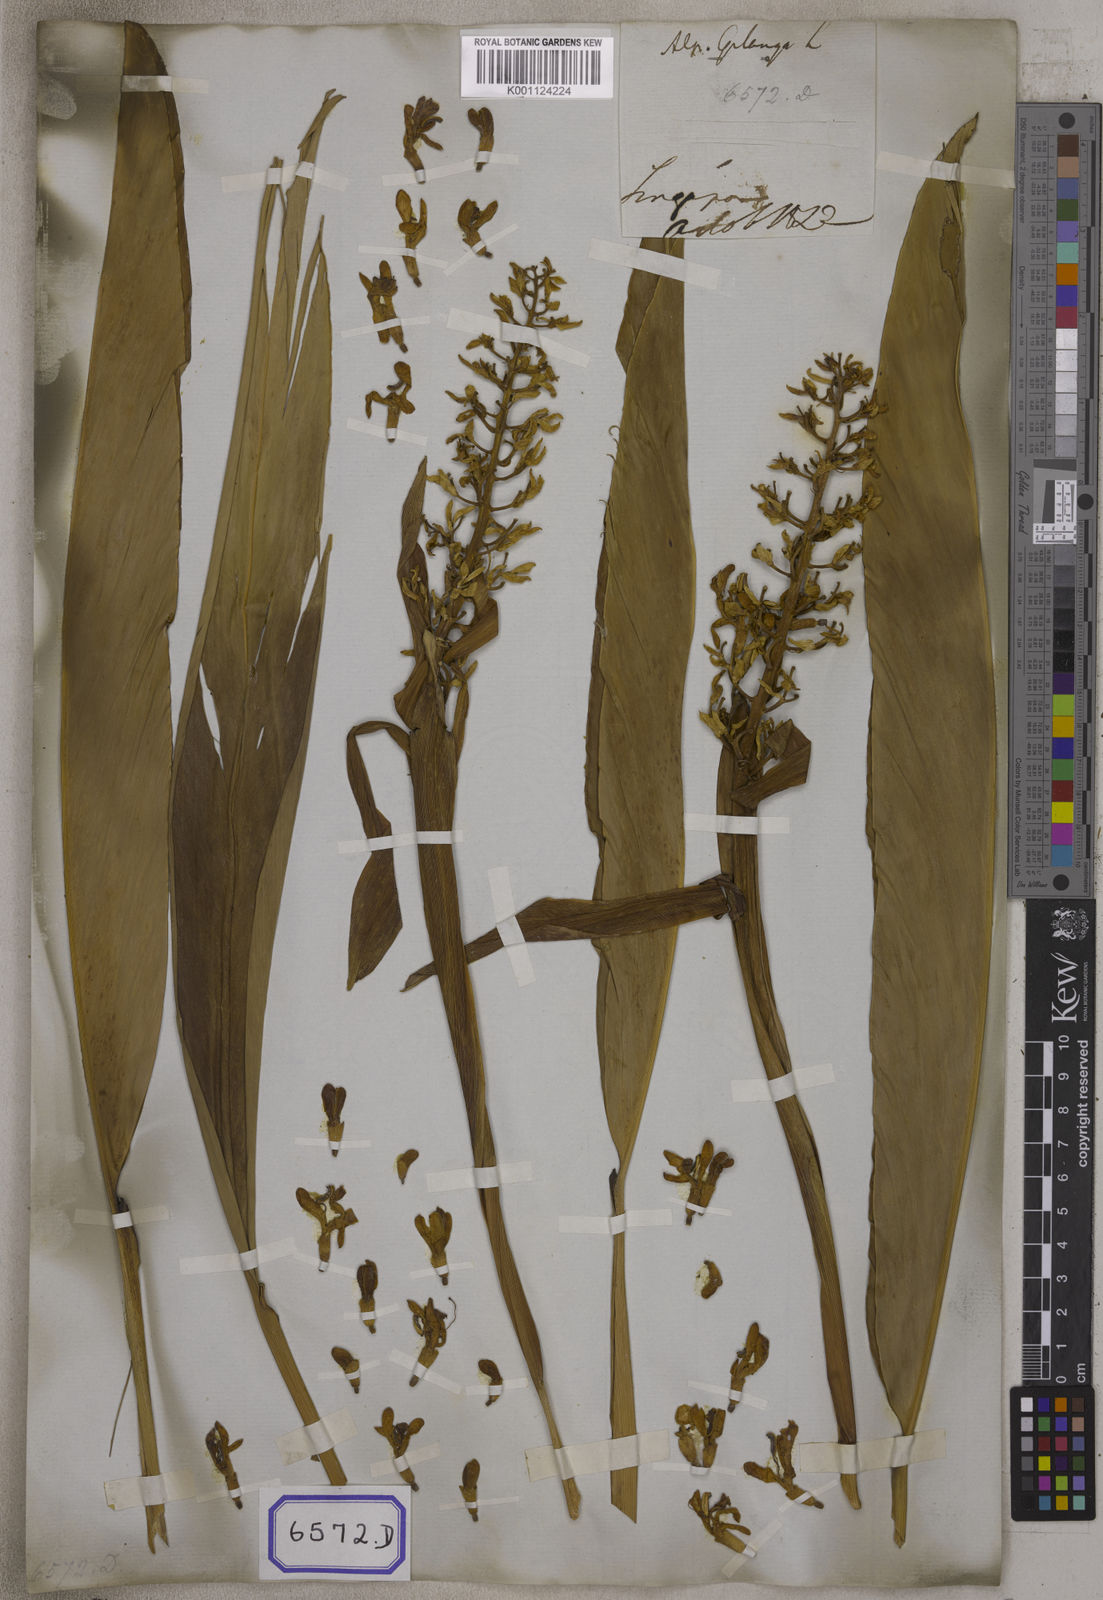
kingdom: Plantae
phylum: Tracheophyta
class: Liliopsida
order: Zingiberales
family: Zingiberaceae
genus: Alpinia
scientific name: Alpinia galanga
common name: Siamese-ginger
